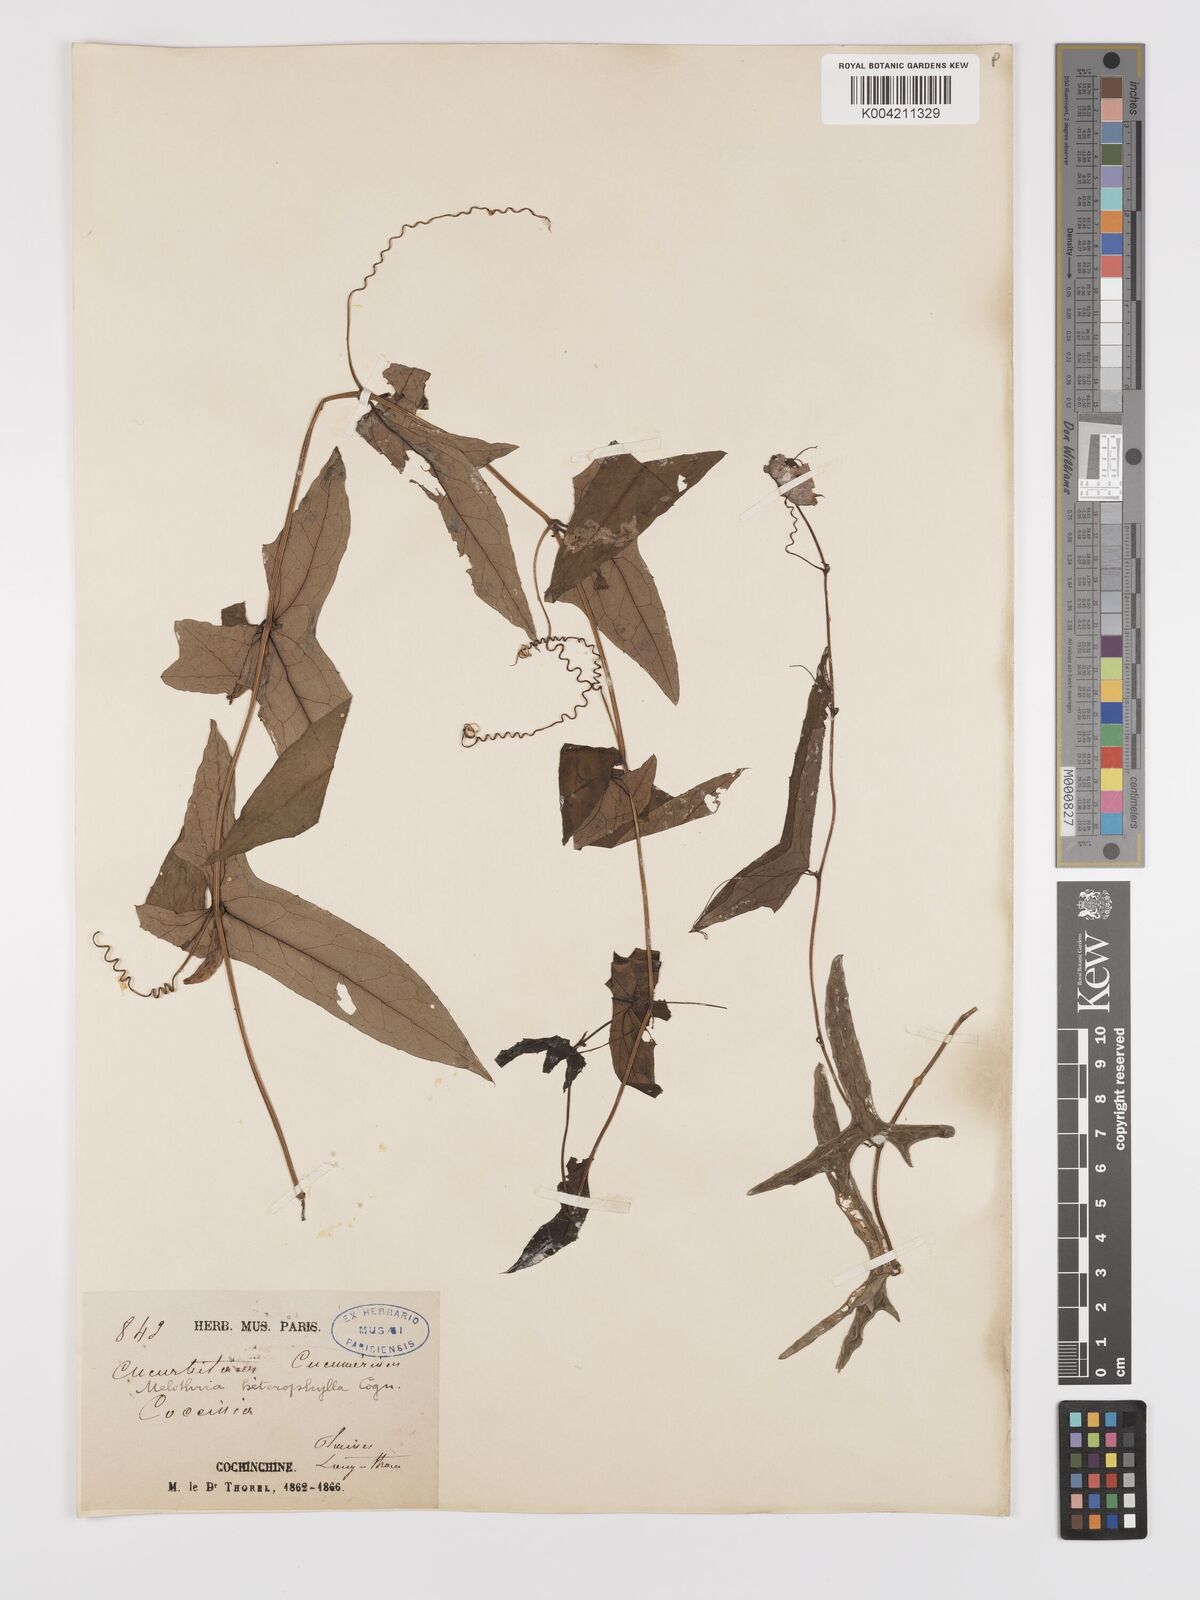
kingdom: Plantae
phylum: Tracheophyta
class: Magnoliopsida
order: Cucurbitales
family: Cucurbitaceae
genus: Solena
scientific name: Solena amplexicaulis
